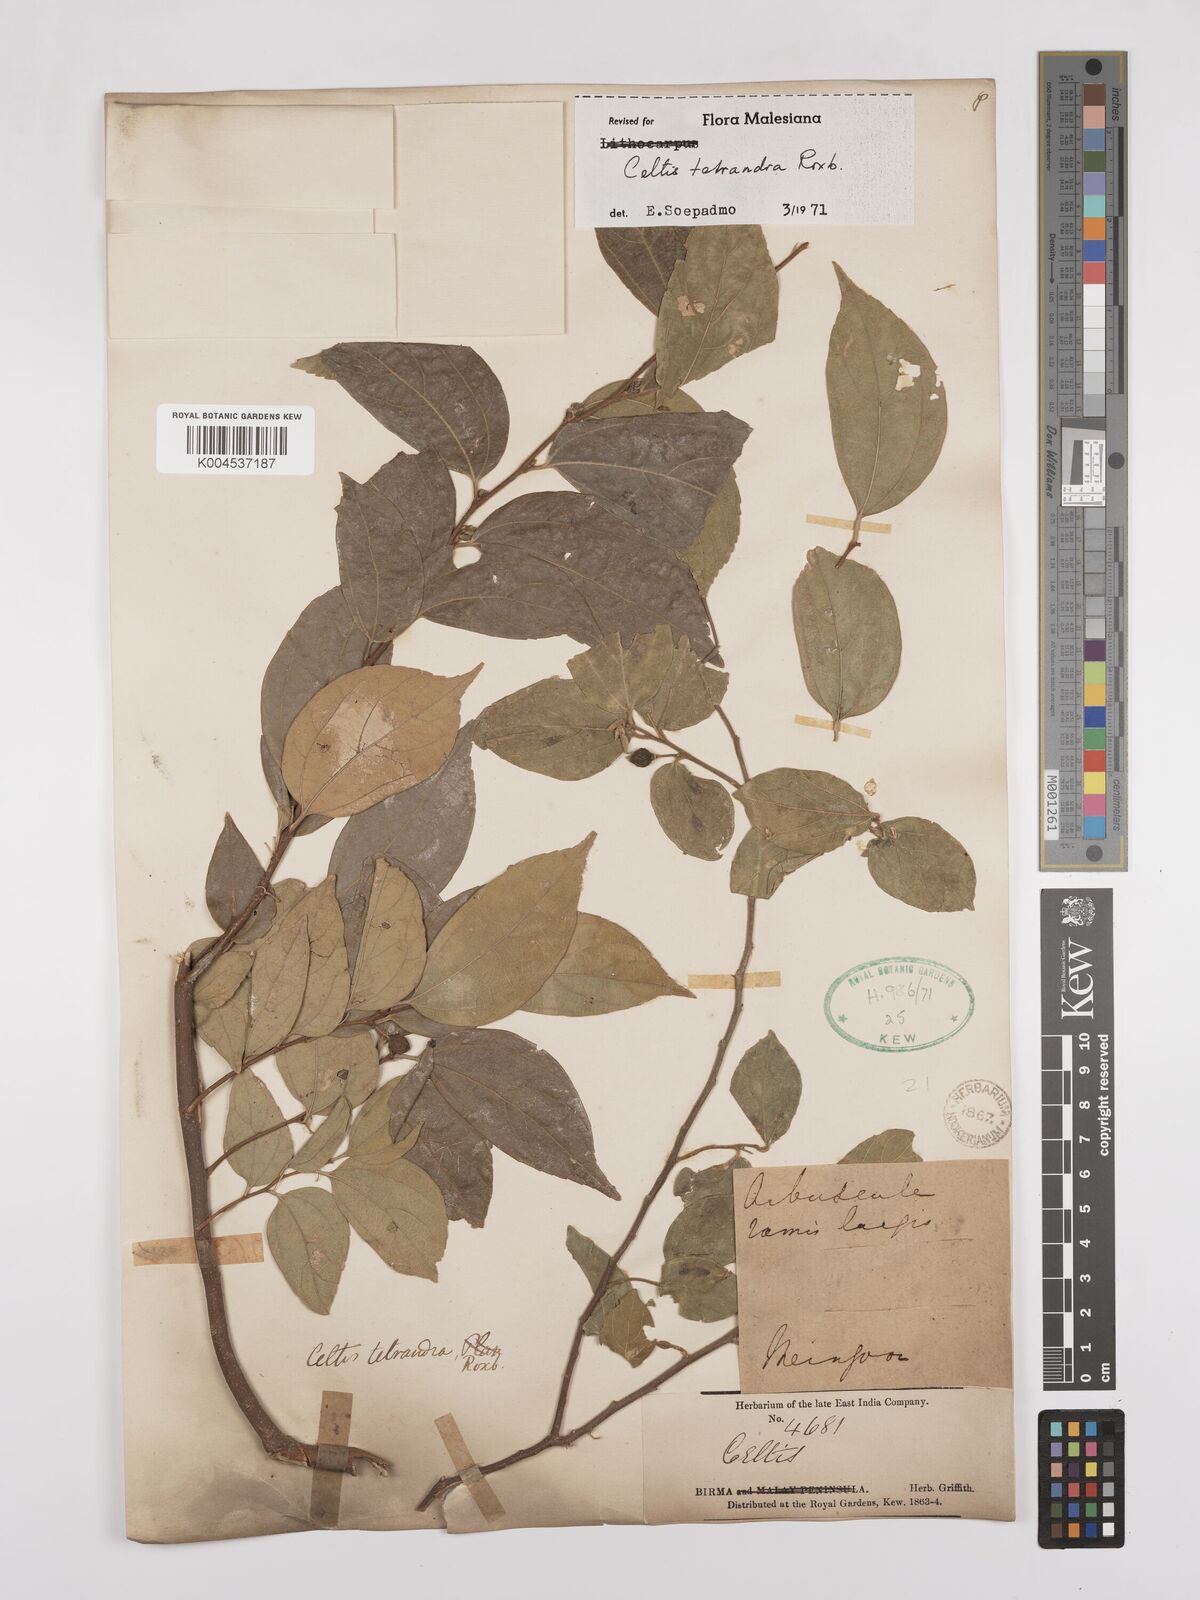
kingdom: Plantae
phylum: Tracheophyta
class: Magnoliopsida
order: Rosales
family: Cannabaceae
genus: Celtis
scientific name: Celtis tetrandra
